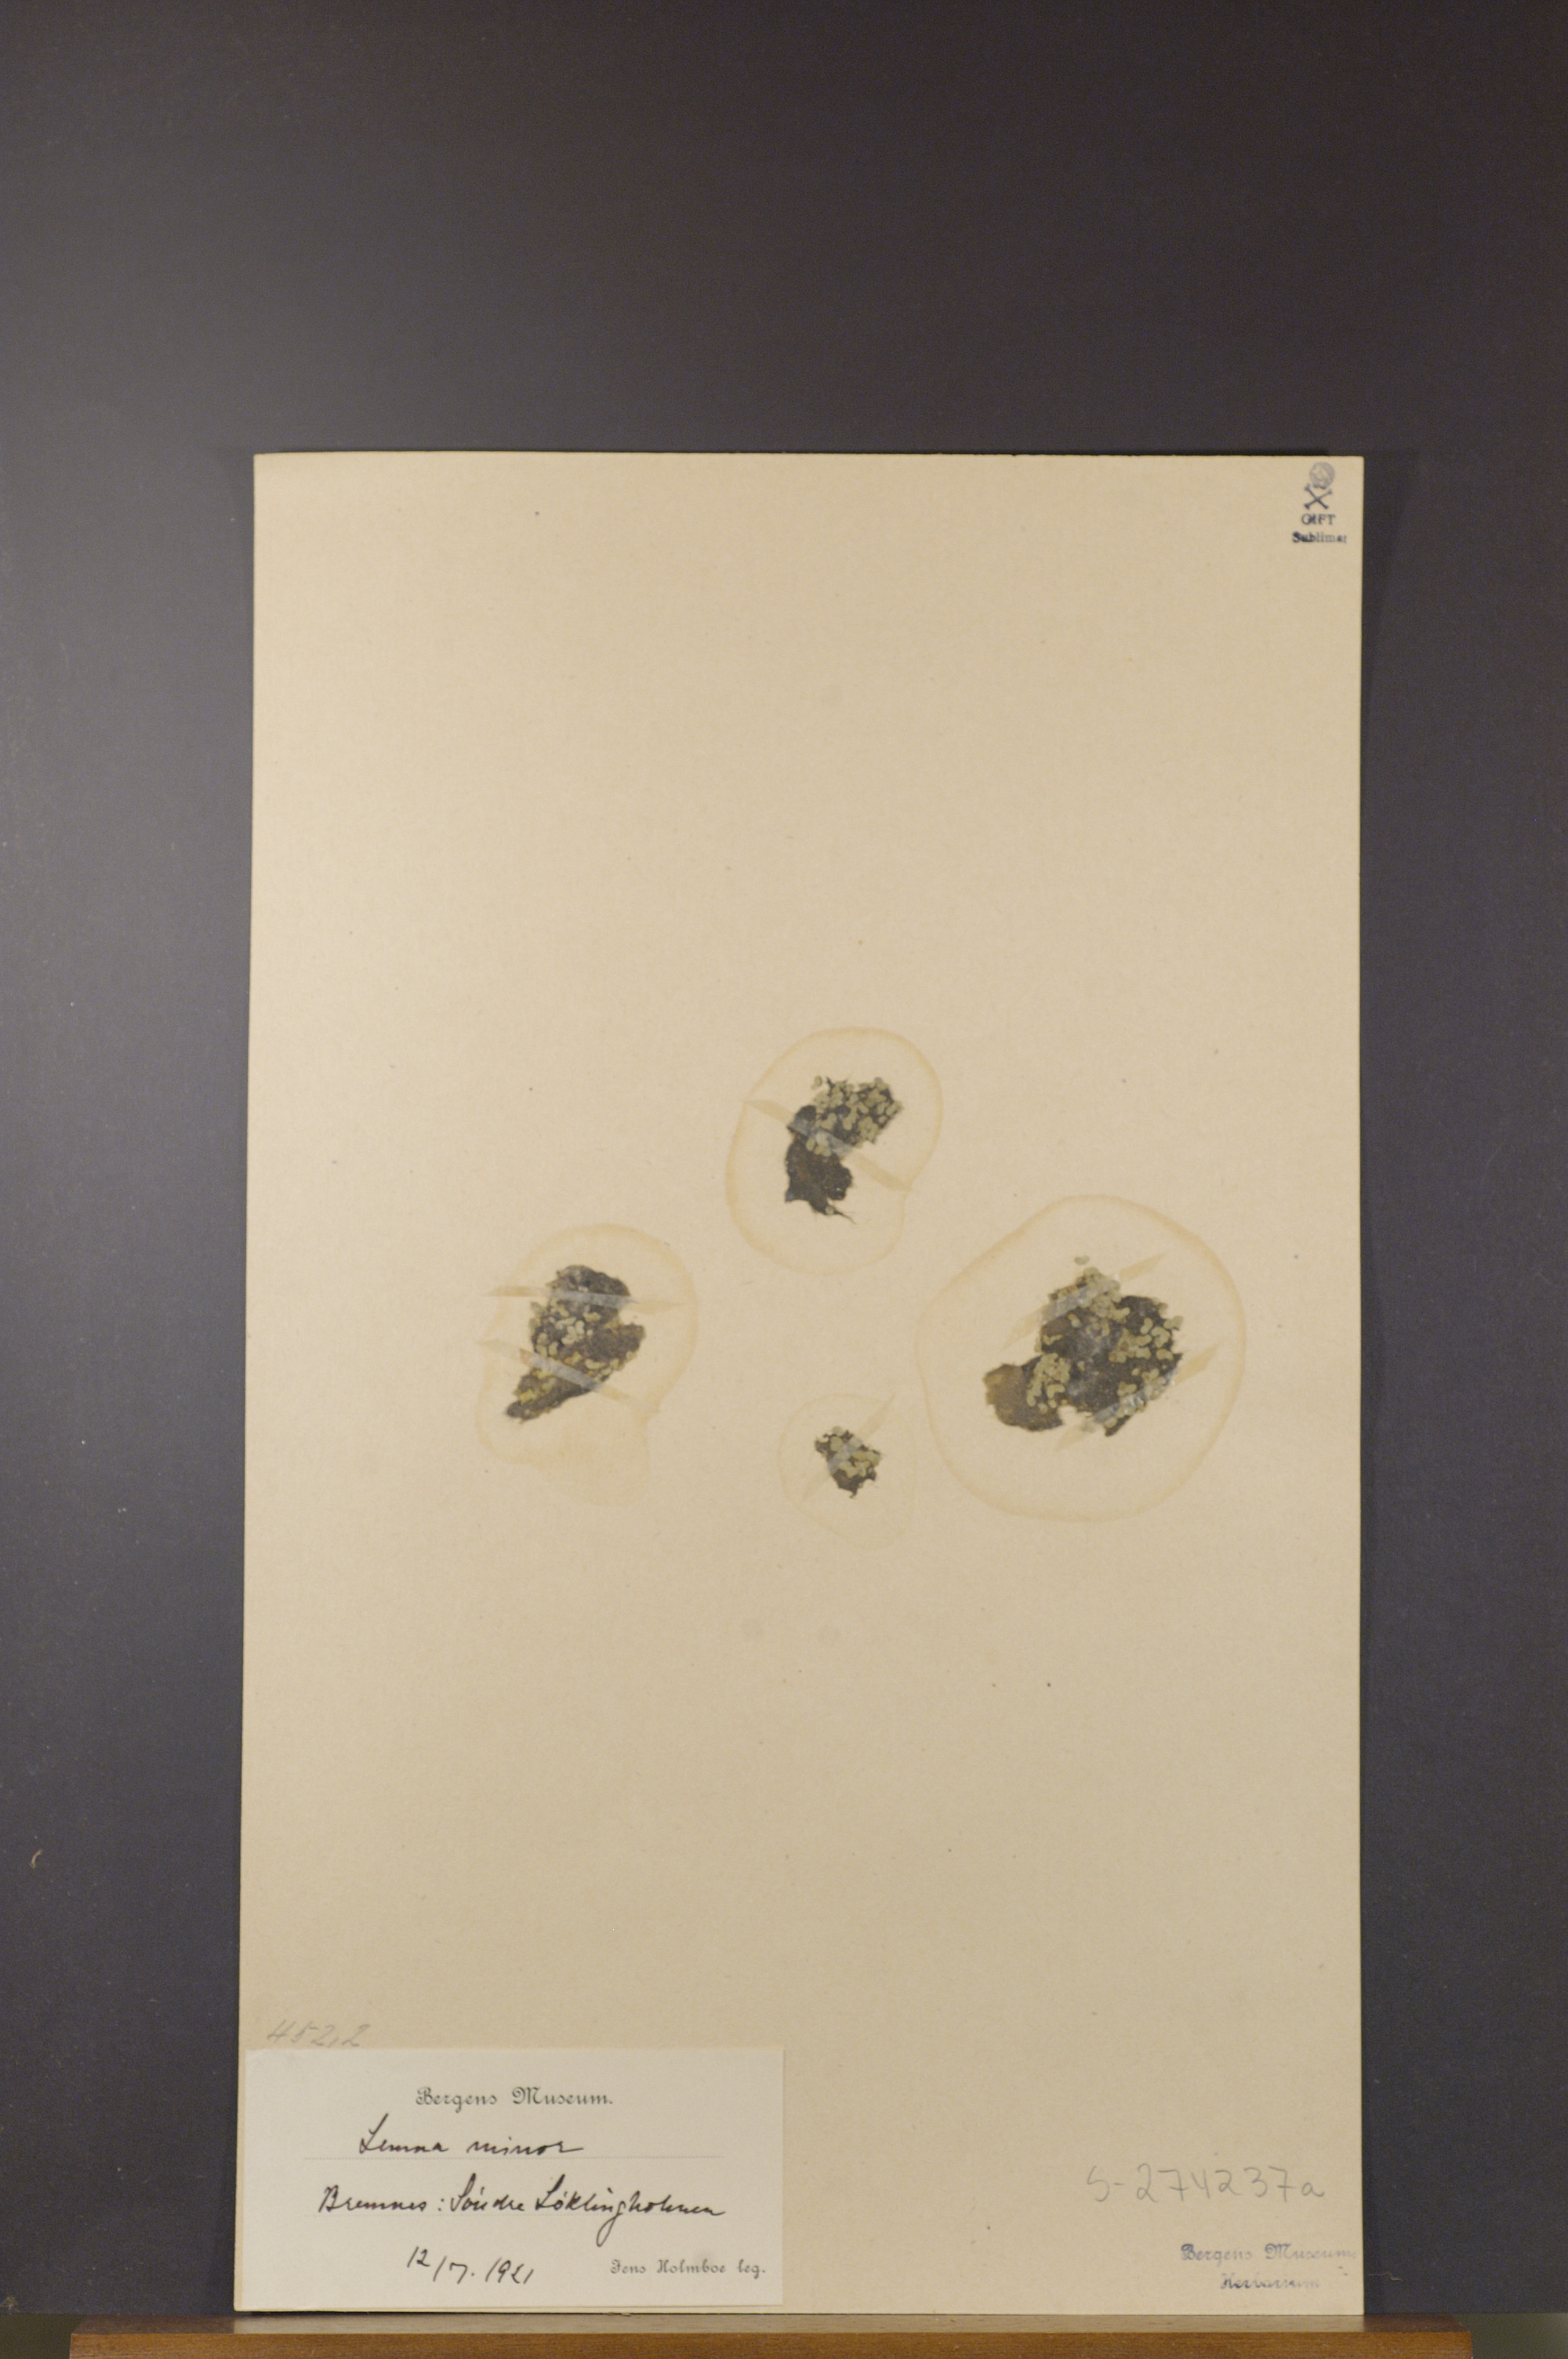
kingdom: Plantae
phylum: Tracheophyta
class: Liliopsida
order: Alismatales
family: Araceae
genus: Lemna
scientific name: Lemna minor
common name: Common duckweed
